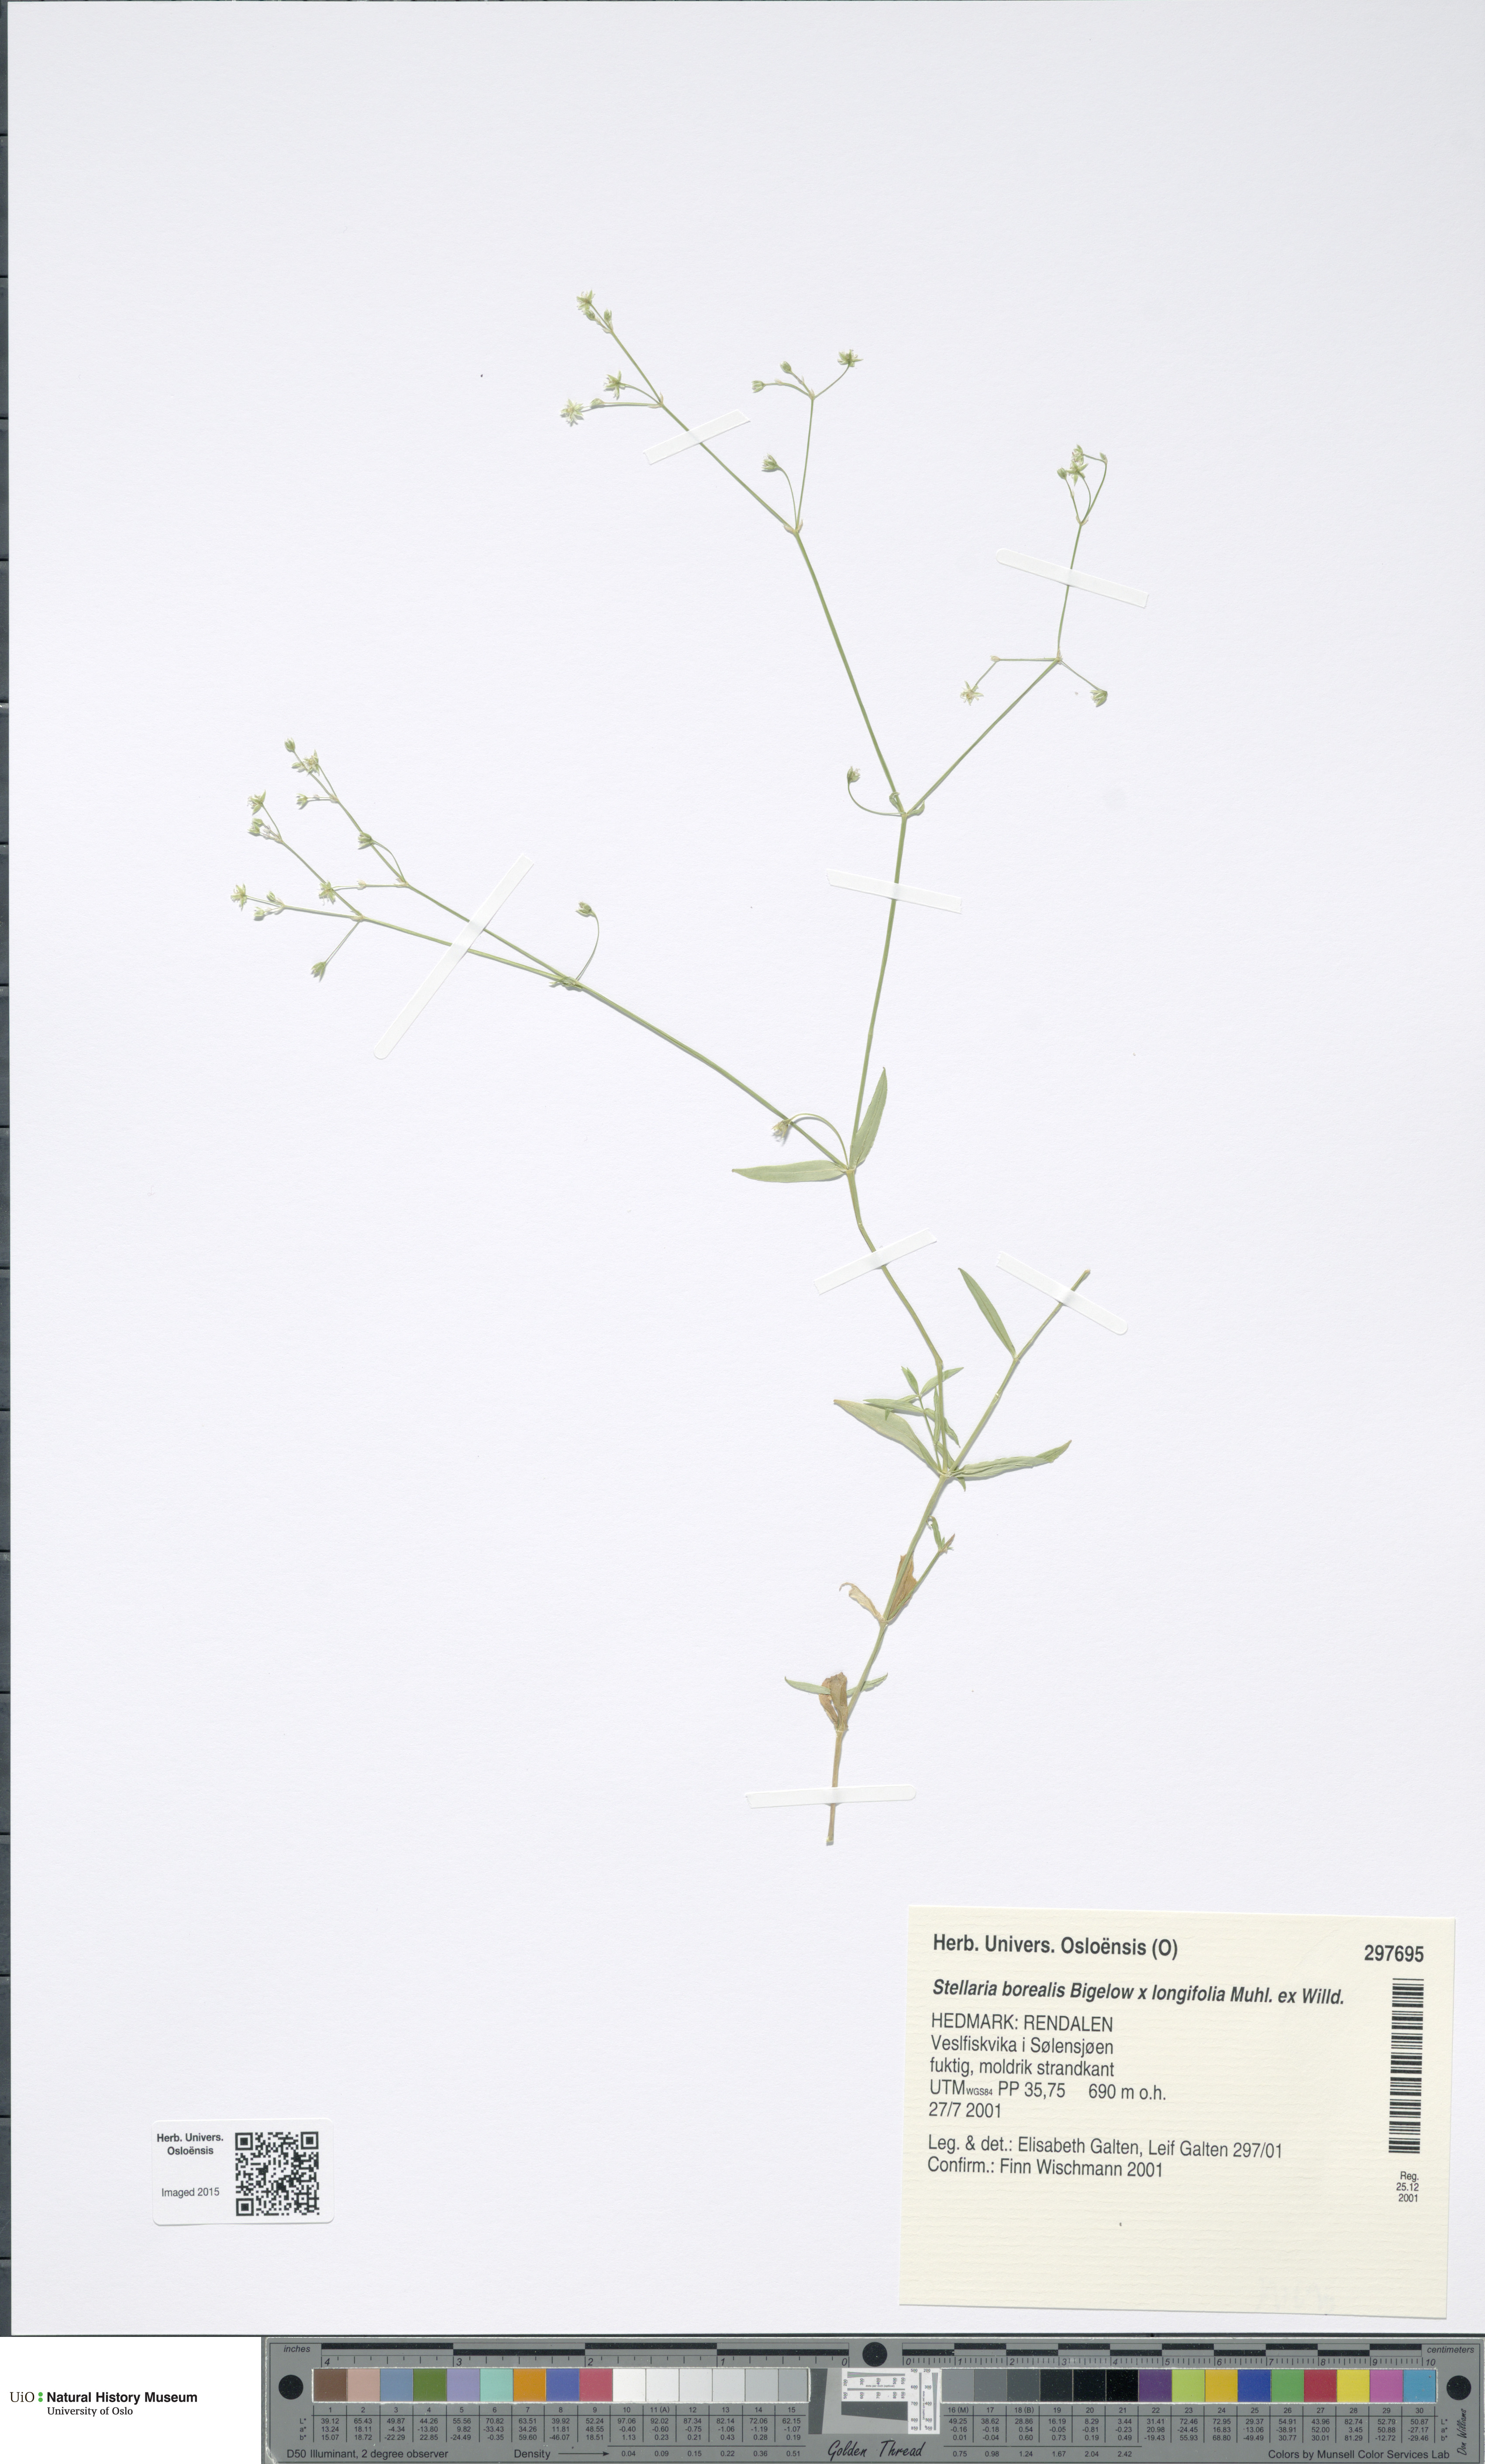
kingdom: Plantae
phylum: Tracheophyta
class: Magnoliopsida
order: Caryophyllales
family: Caryophyllaceae
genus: Stellaria
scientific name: Stellaria
